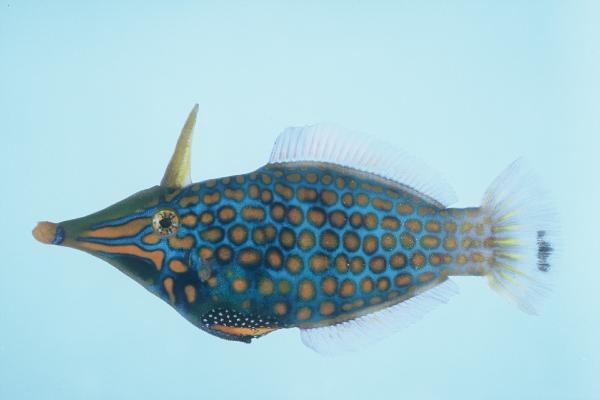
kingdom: Animalia
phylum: Chordata
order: Tetraodontiformes
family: Monacanthidae
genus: Oxymonacanthus
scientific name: Oxymonacanthus longirostris
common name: Beaked leatherjacket
